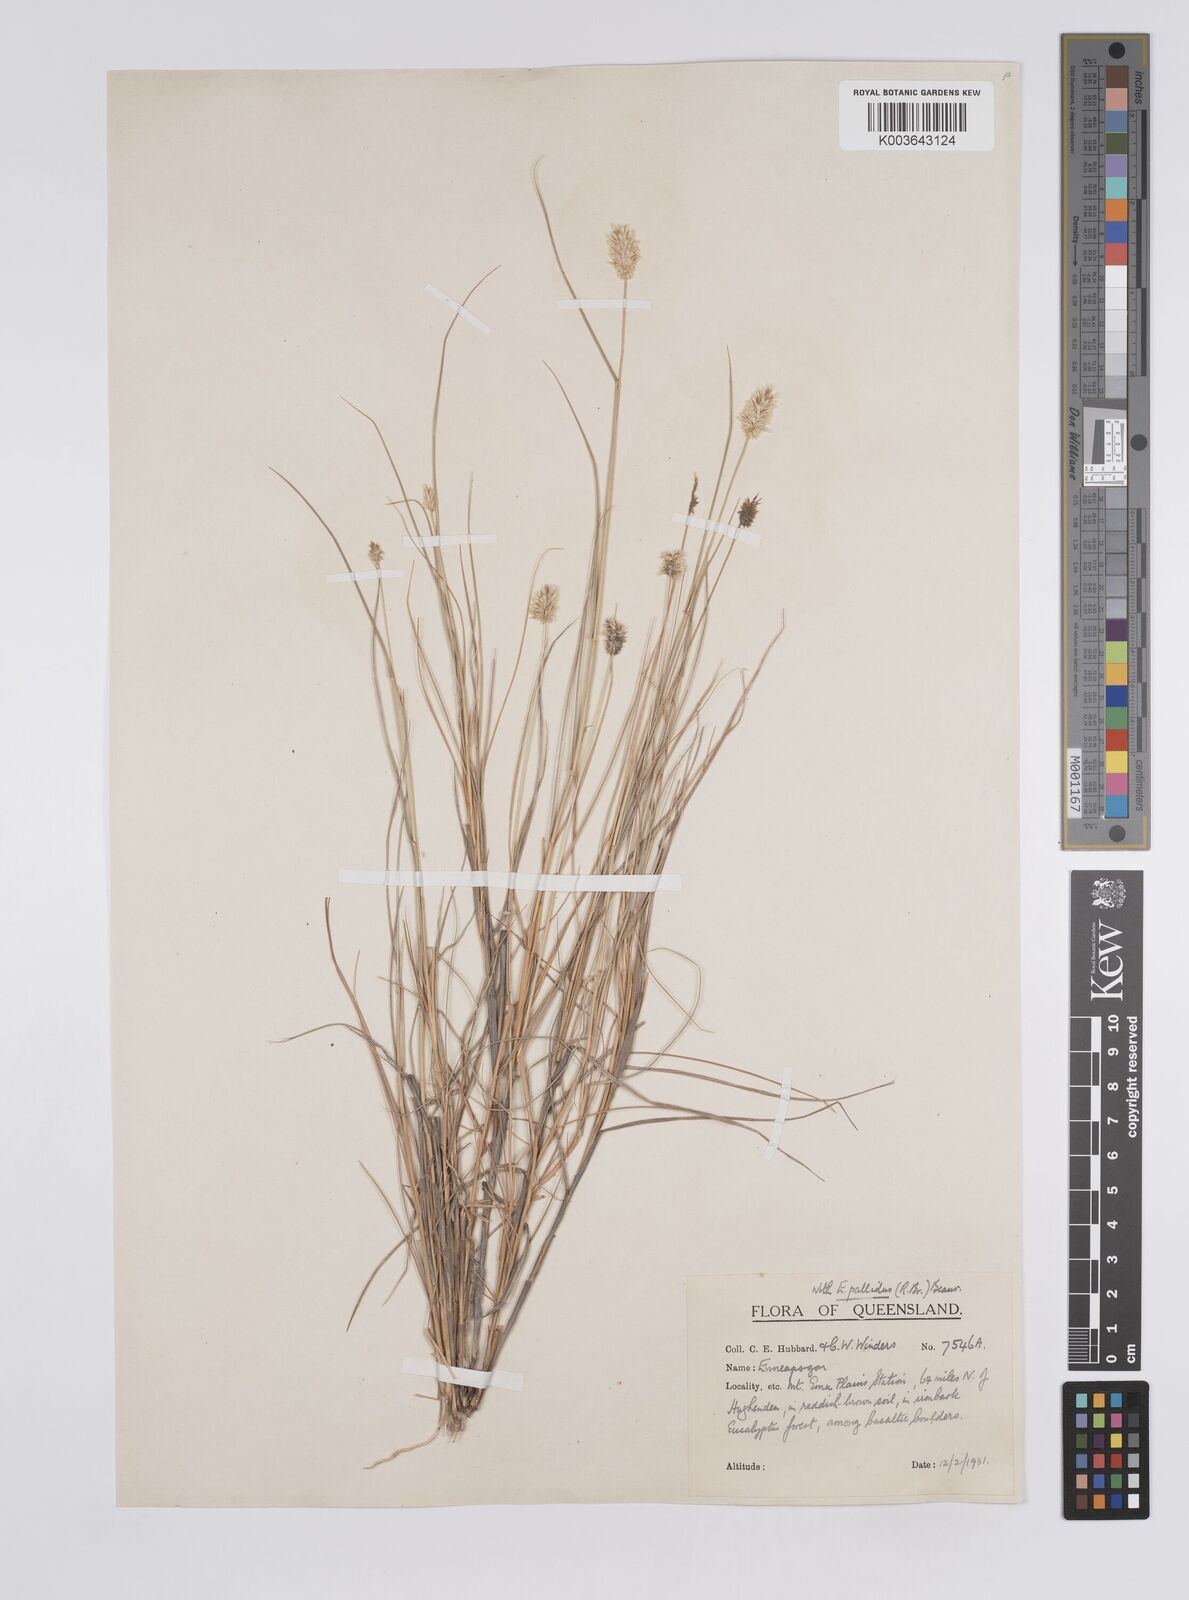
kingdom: Plantae
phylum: Tracheophyta
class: Liliopsida
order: Poales
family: Poaceae
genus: Enneapogon
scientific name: Enneapogon lindleyanus
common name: Conetop nineawn
